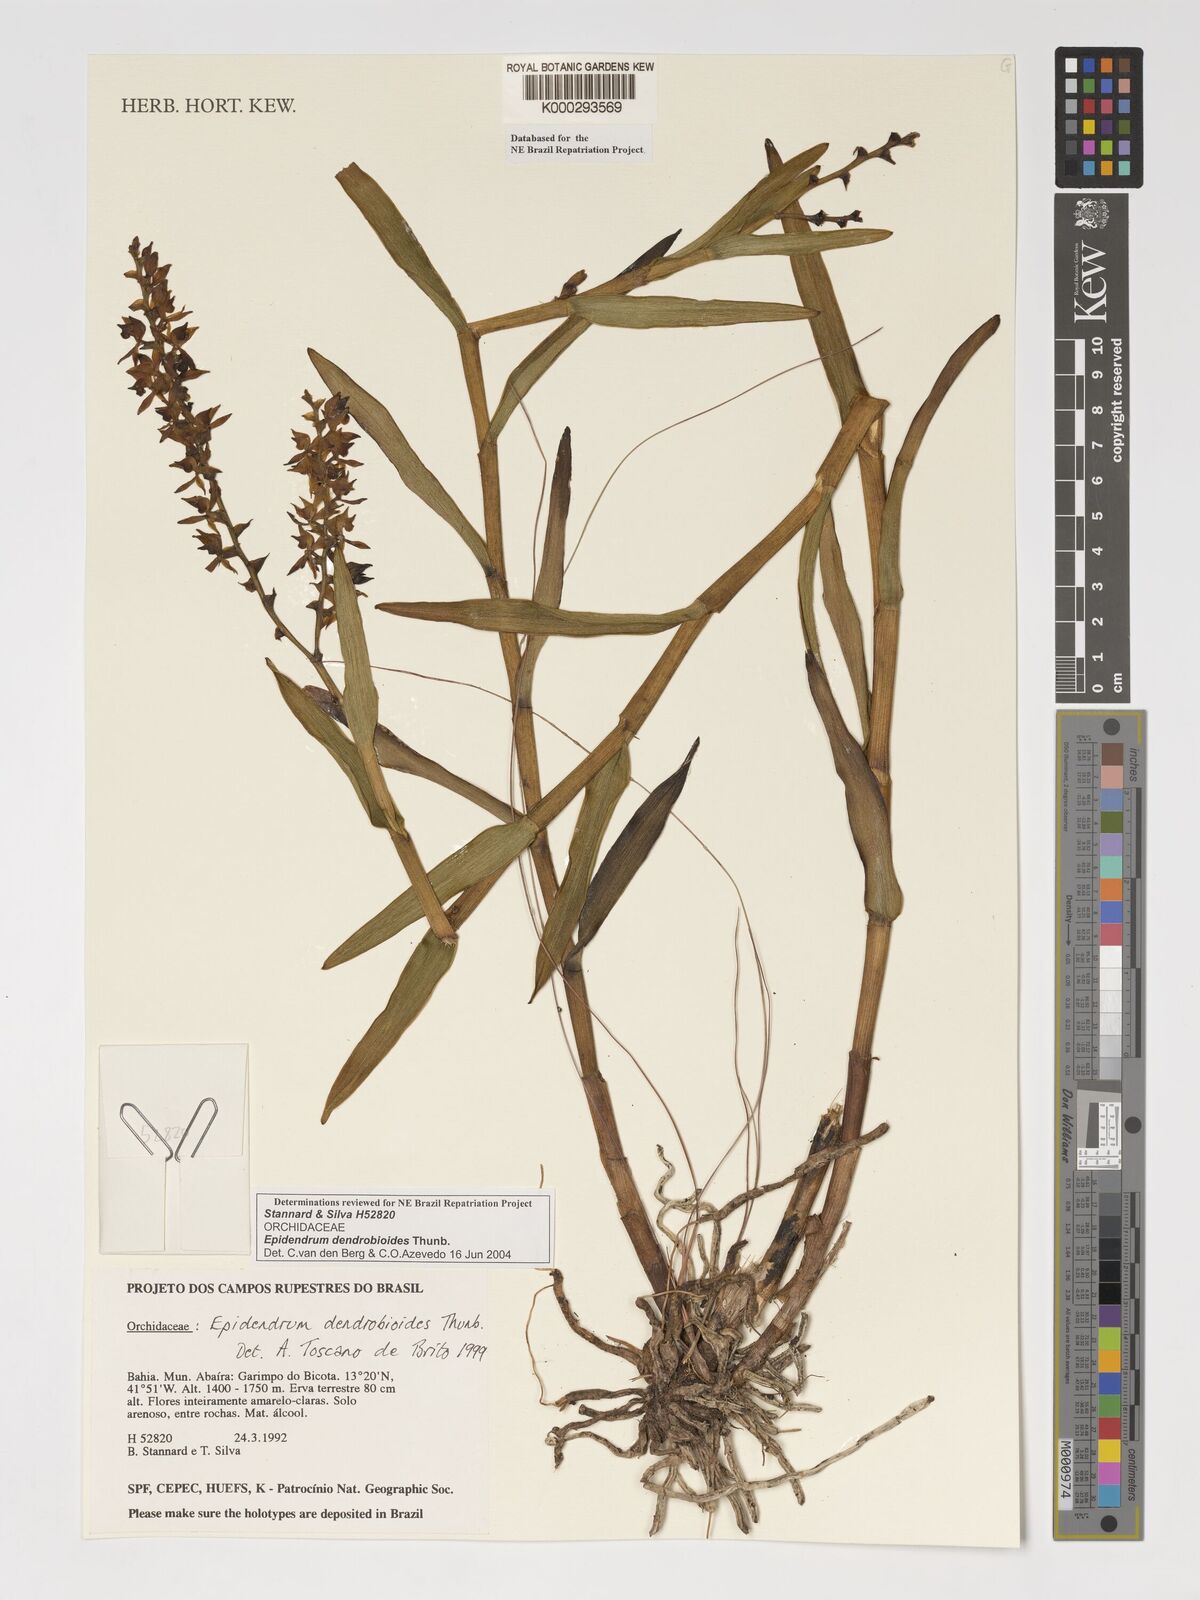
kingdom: Plantae
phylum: Tracheophyta
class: Liliopsida
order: Asparagales
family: Orchidaceae
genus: Epidendrum
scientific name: Epidendrum dendrobioides
